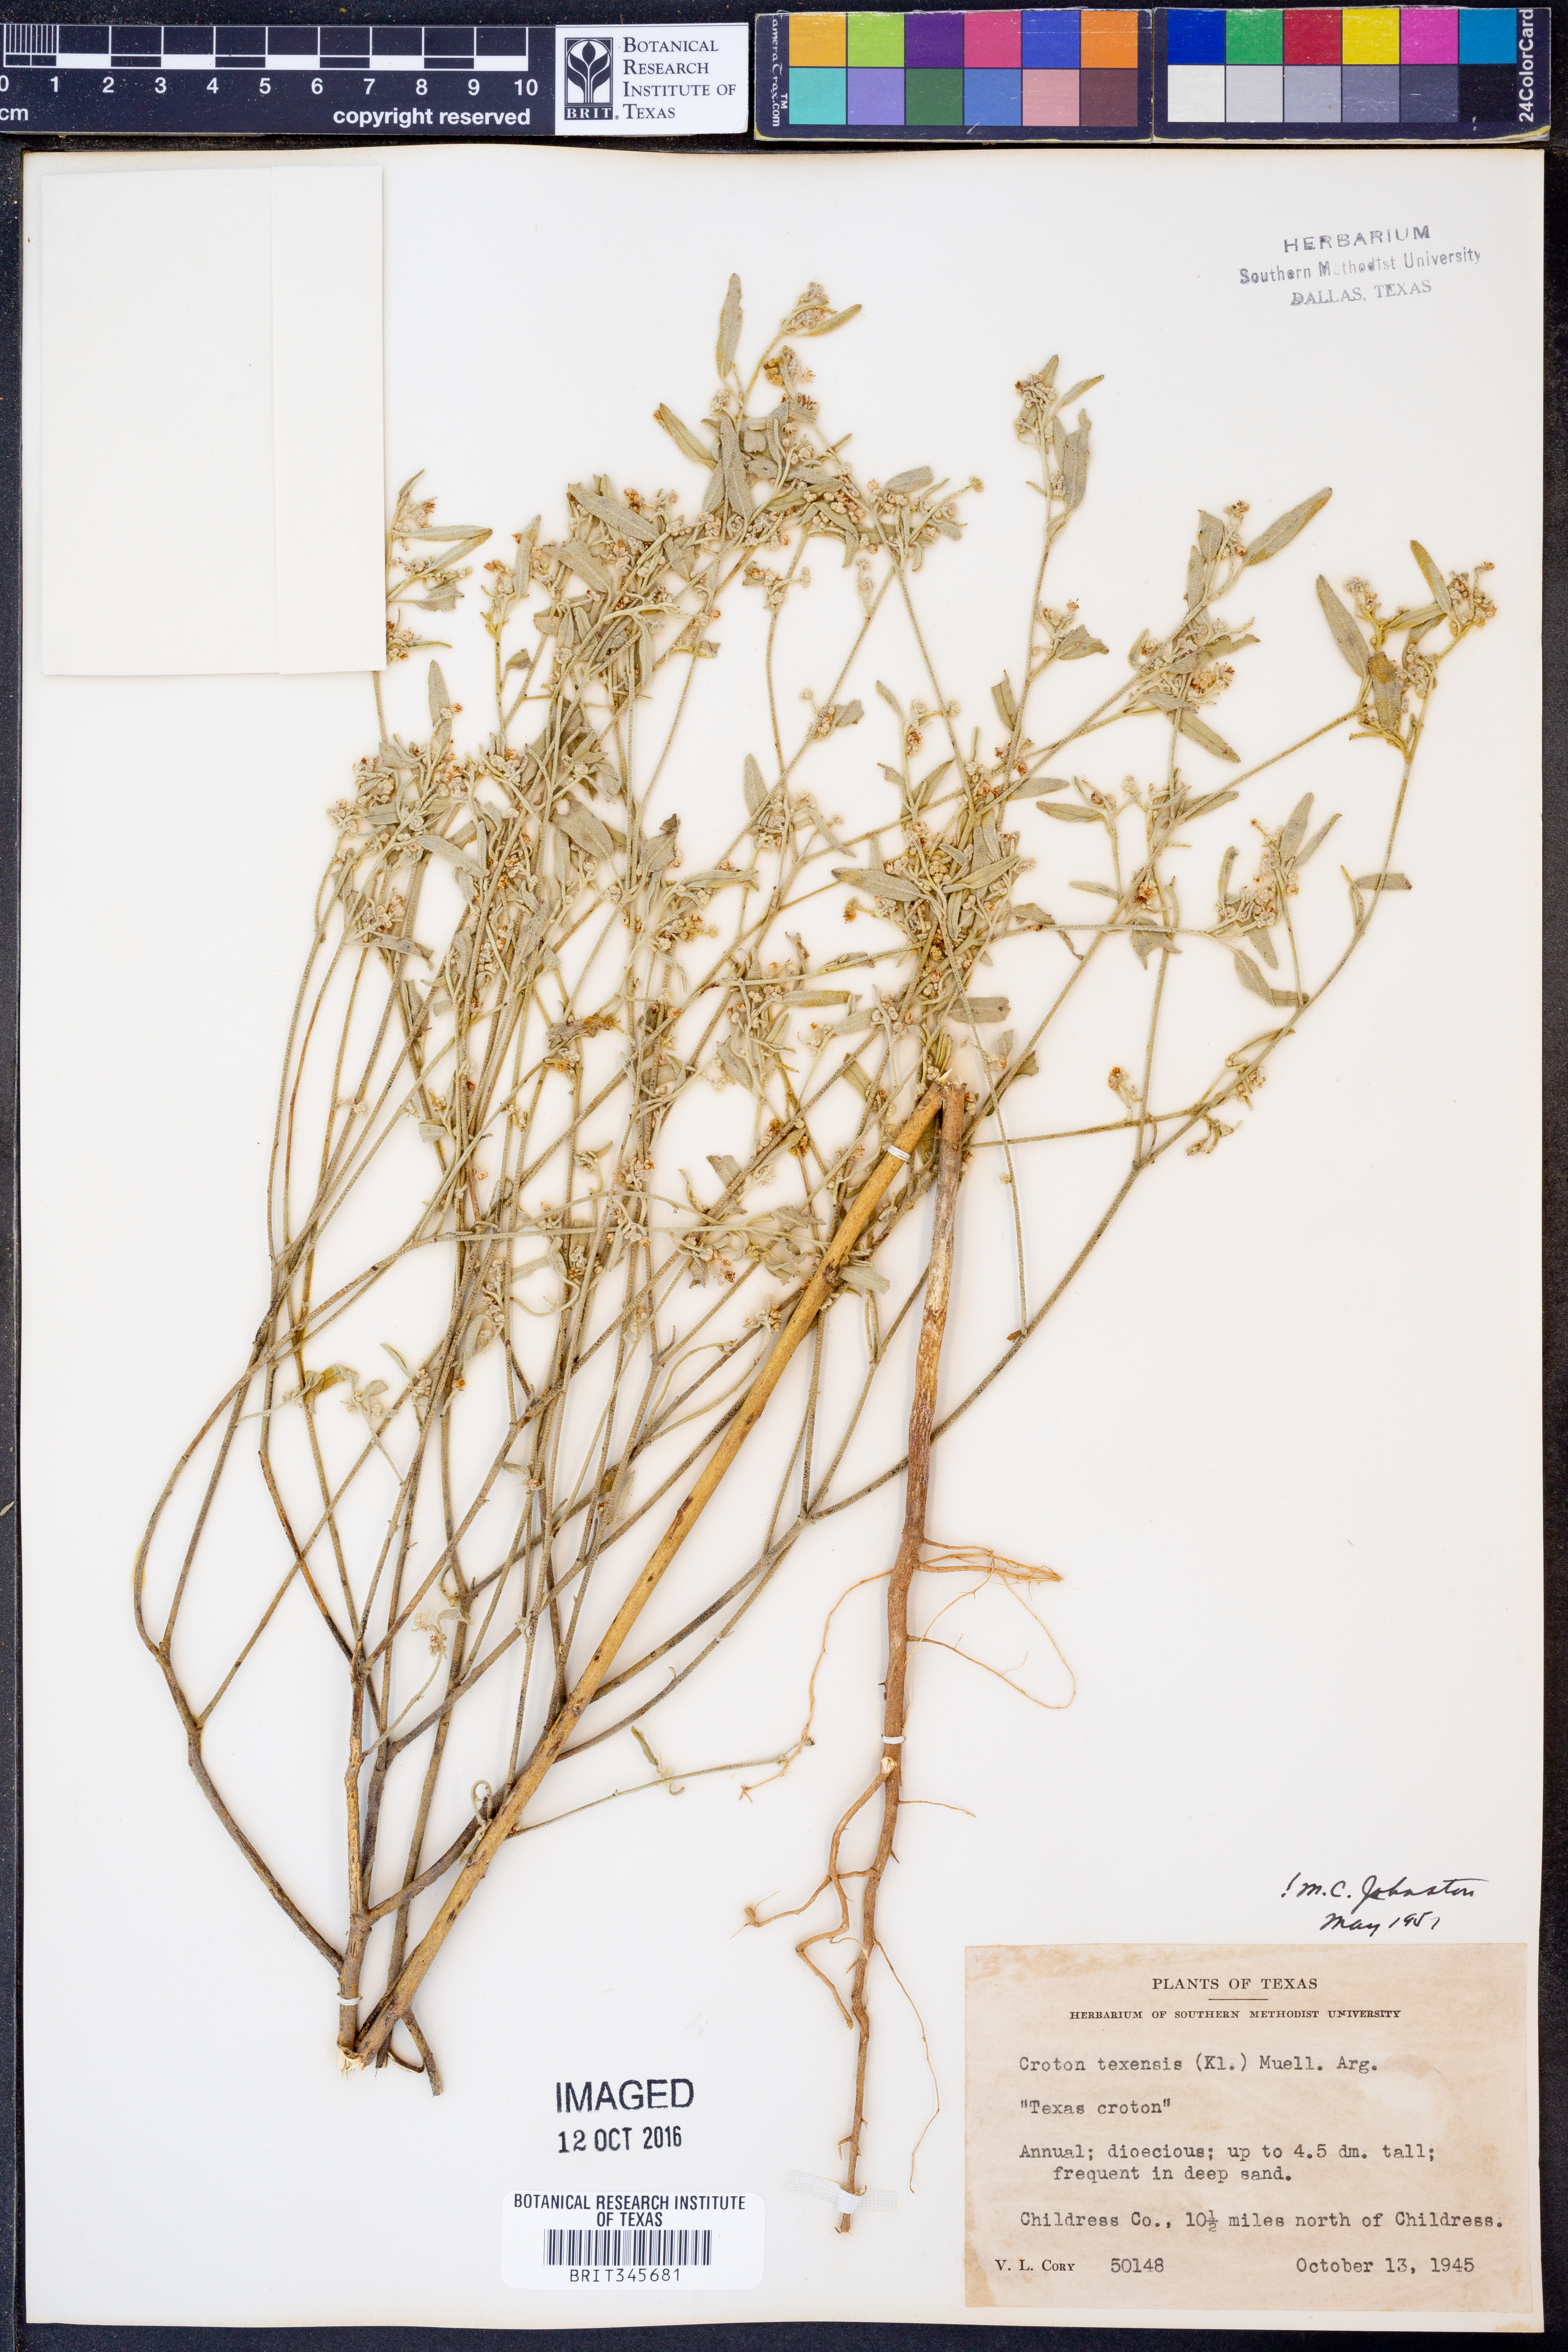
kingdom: Plantae
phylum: Tracheophyta
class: Magnoliopsida
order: Malpighiales
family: Euphorbiaceae
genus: Croton
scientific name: Croton texensis
